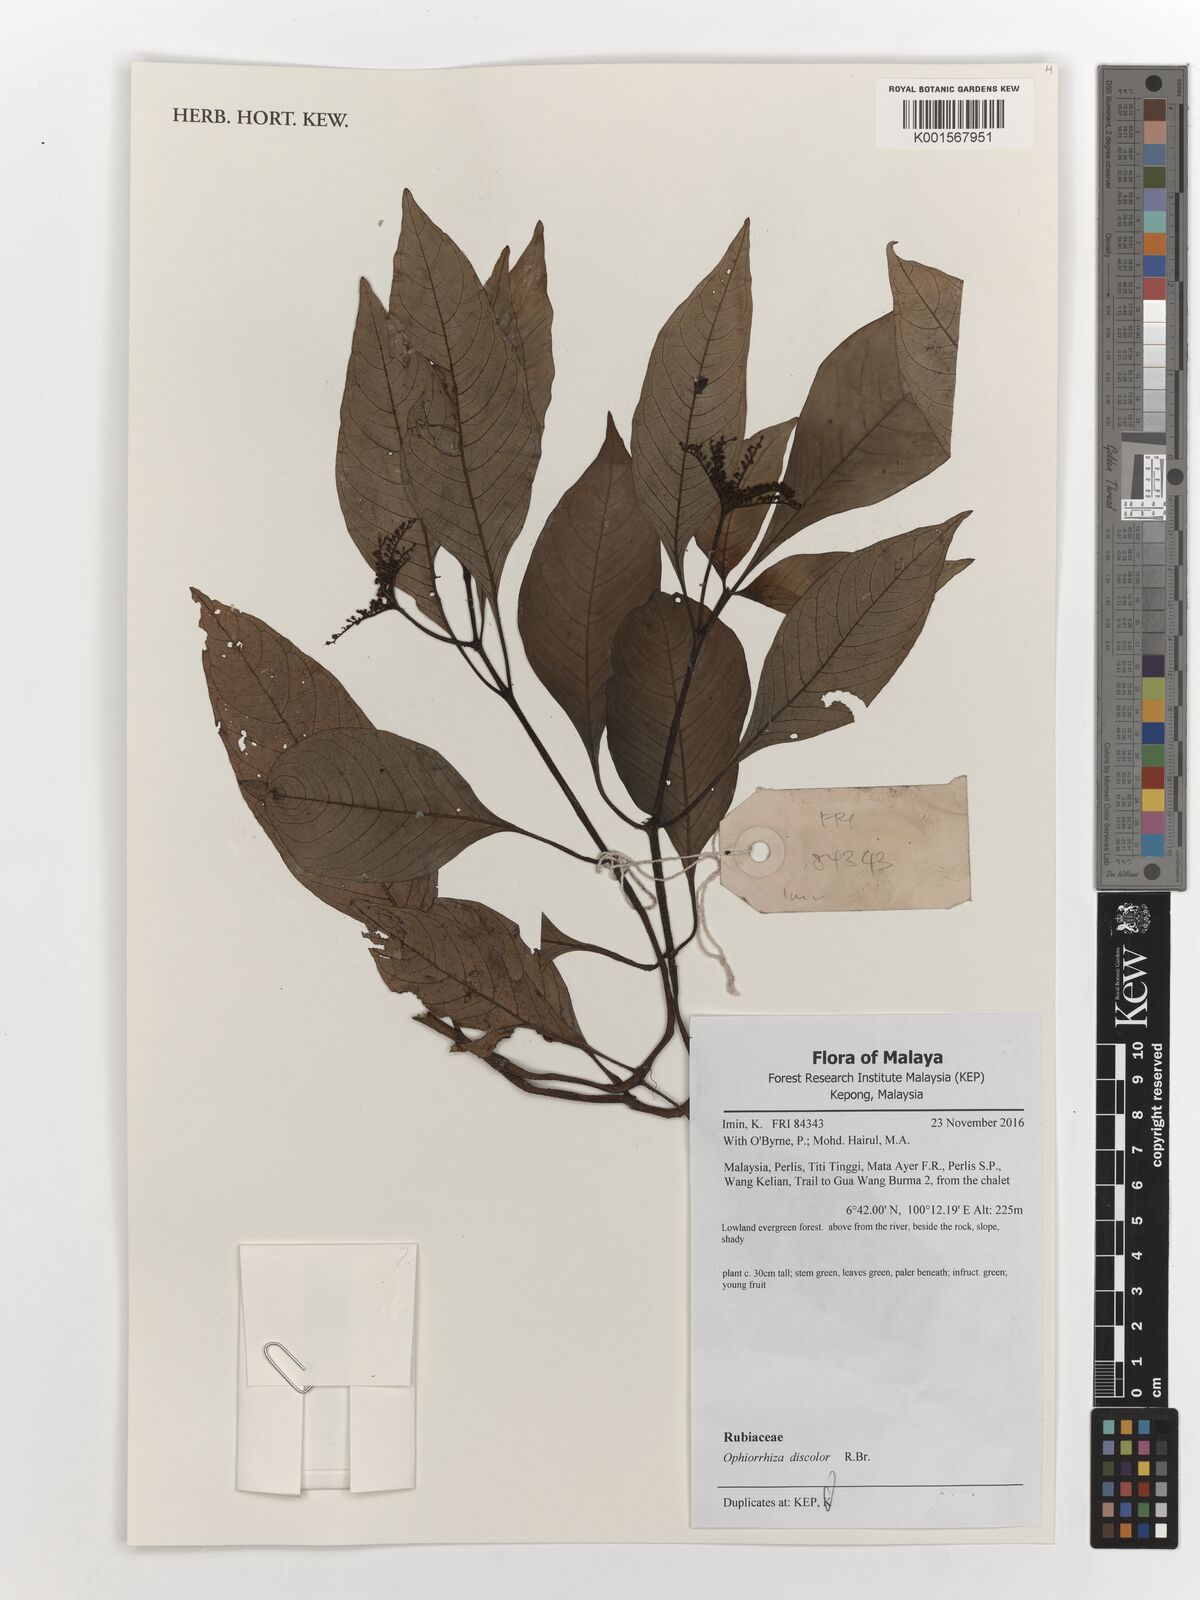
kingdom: Plantae
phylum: Tracheophyta
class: Magnoliopsida
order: Gentianales
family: Rubiaceae
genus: Ophiorrhiza
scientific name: Ophiorrhiza discolor
